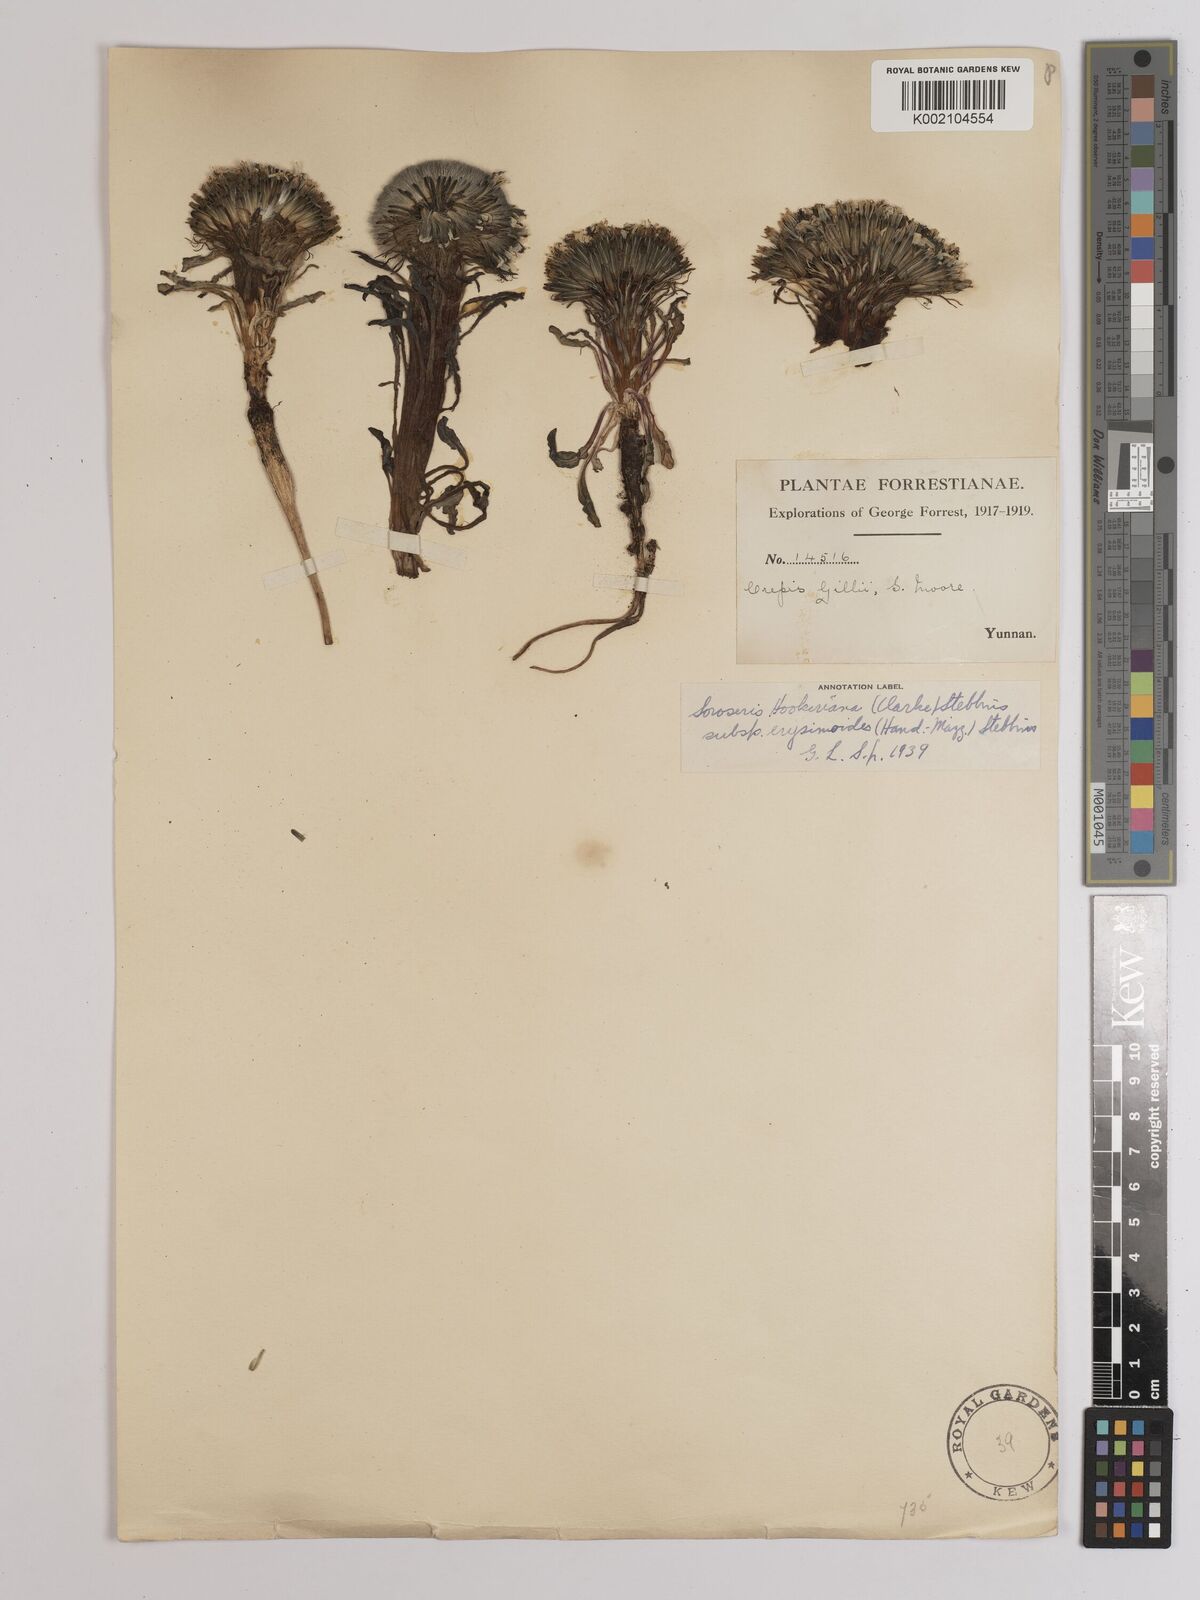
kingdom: Plantae
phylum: Tracheophyta
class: Magnoliopsida
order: Asterales
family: Asteraceae
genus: Soroseris
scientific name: Soroseris hookeriana
